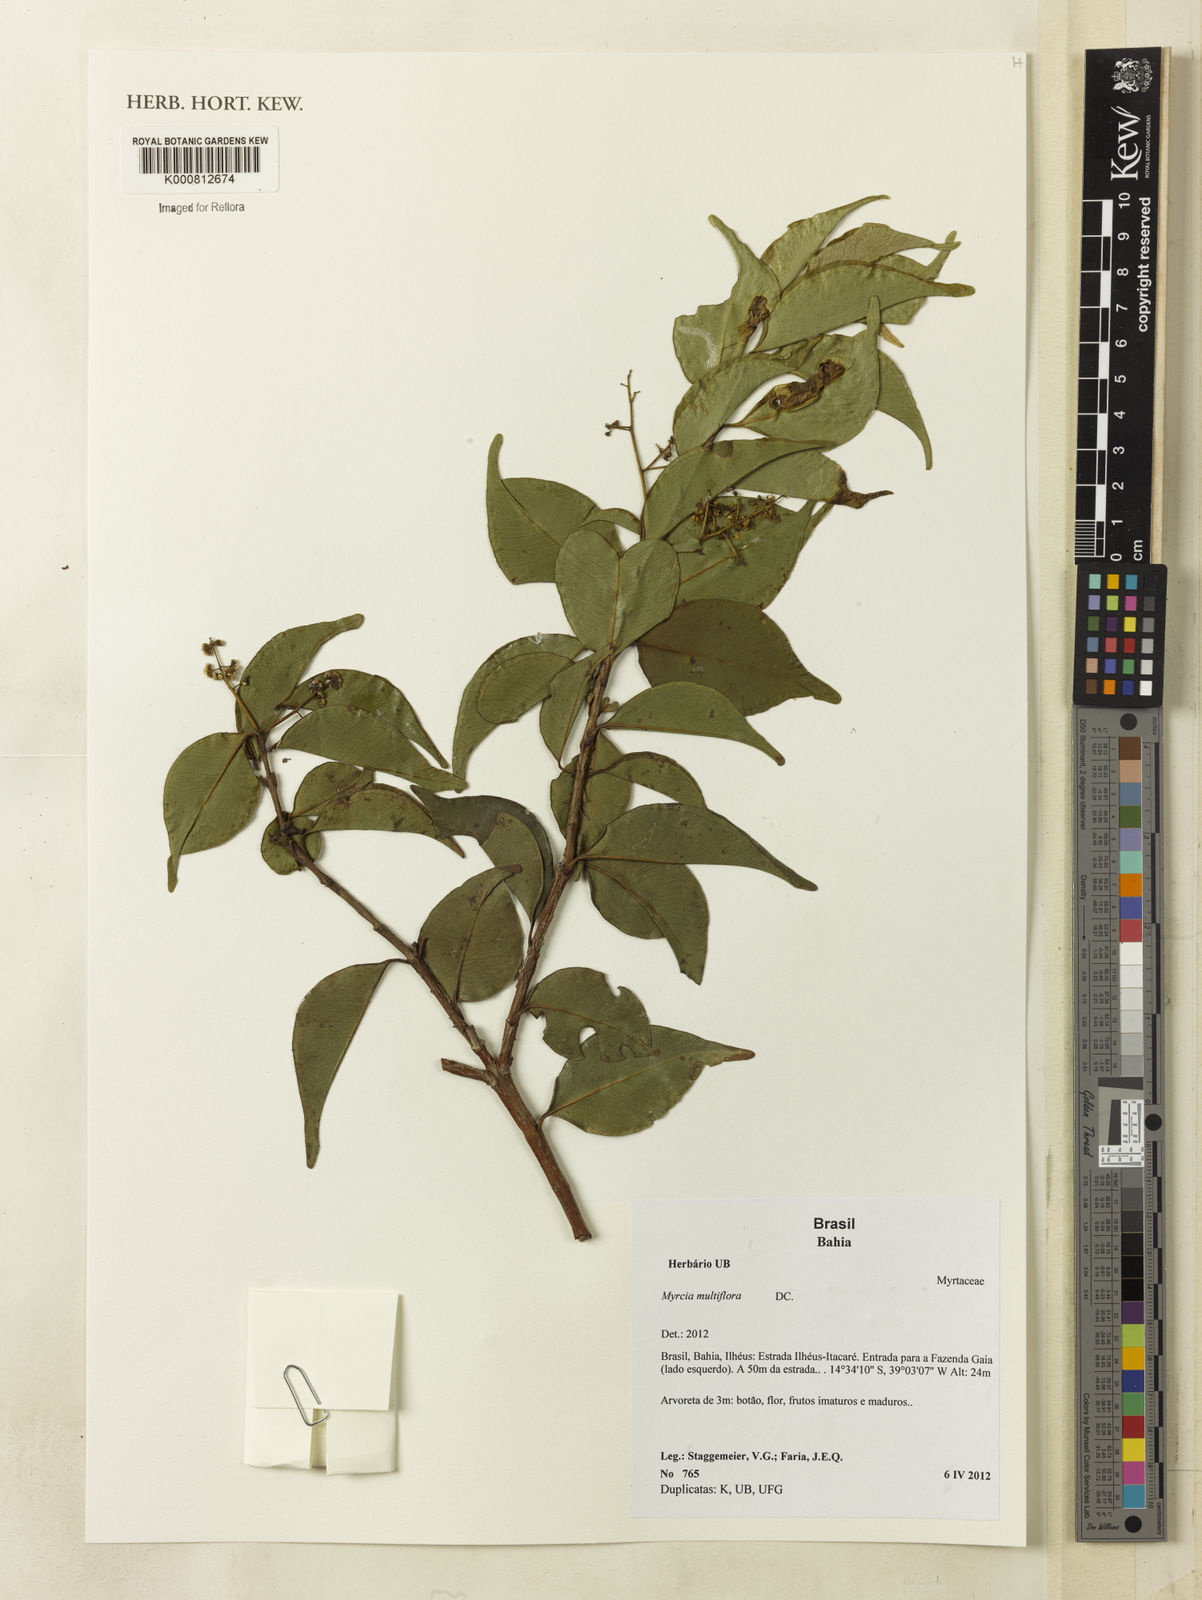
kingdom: Plantae
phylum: Tracheophyta
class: Magnoliopsida
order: Myrtales
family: Myrtaceae
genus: Myrcia
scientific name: Myrcia multiflora
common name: Pedra hume
